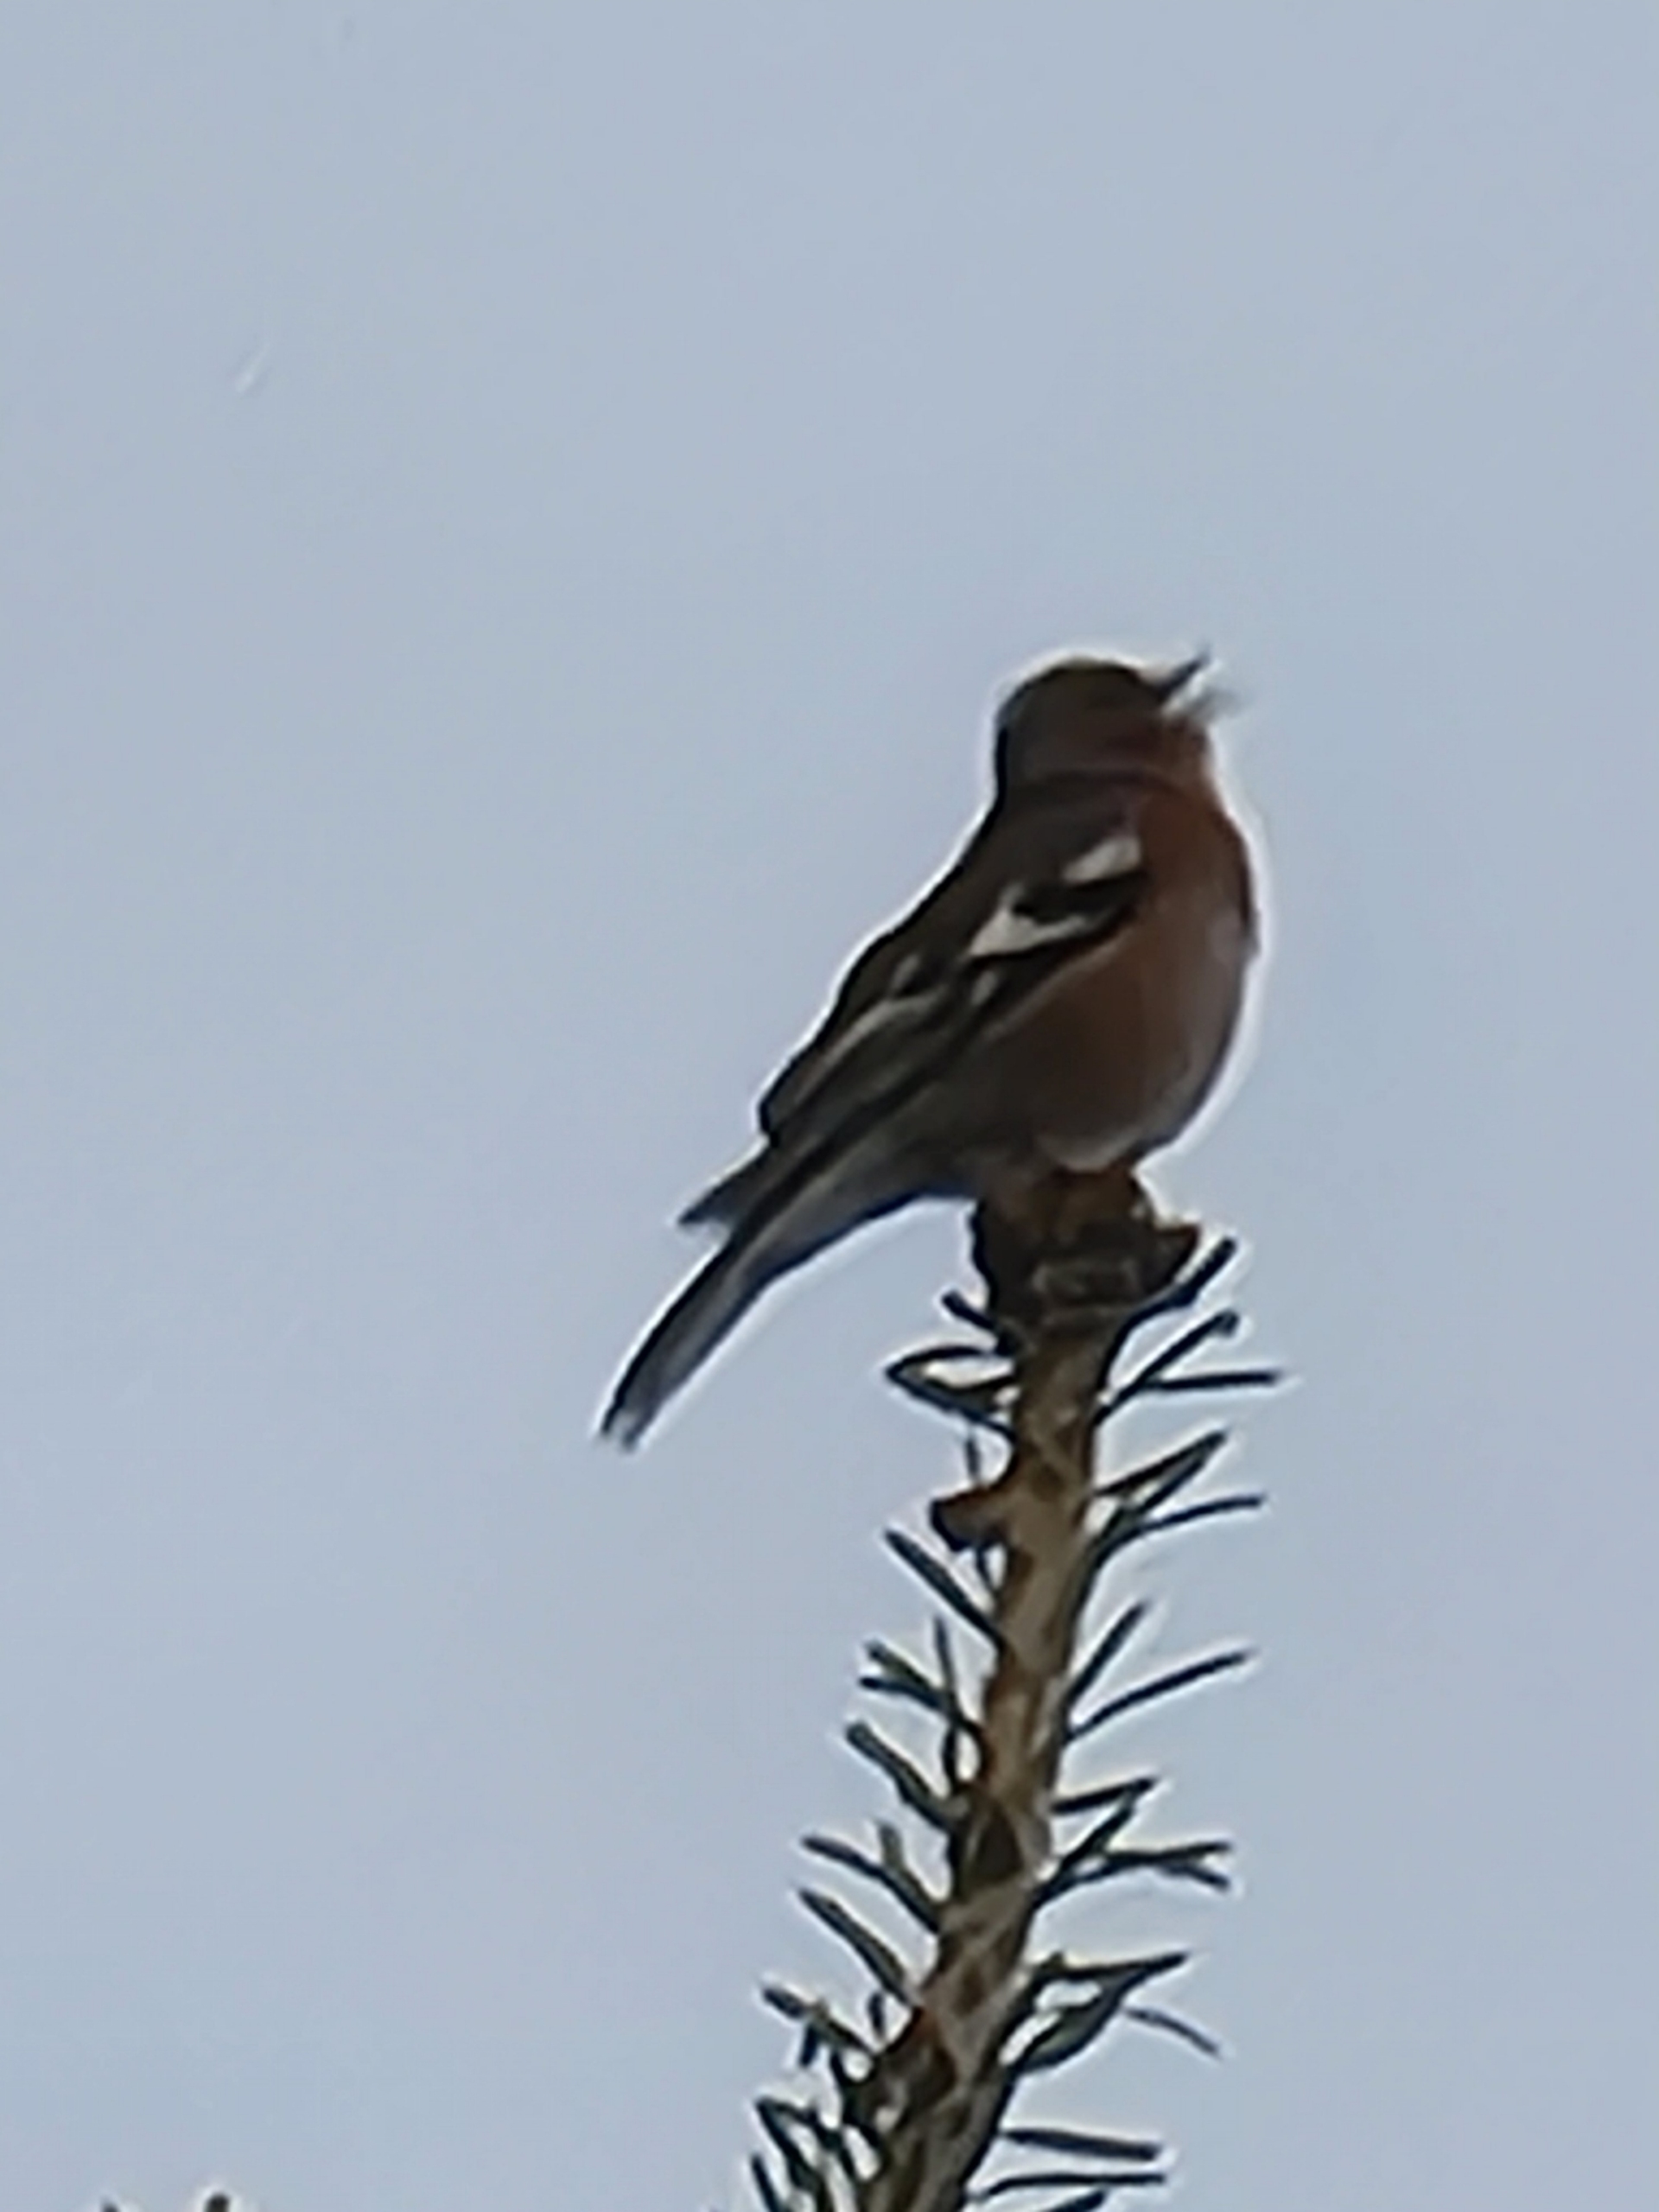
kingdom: Animalia
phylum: Chordata
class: Aves
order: Passeriformes
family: Fringillidae
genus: Fringilla
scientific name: Fringilla coelebs
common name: Bogfinke
